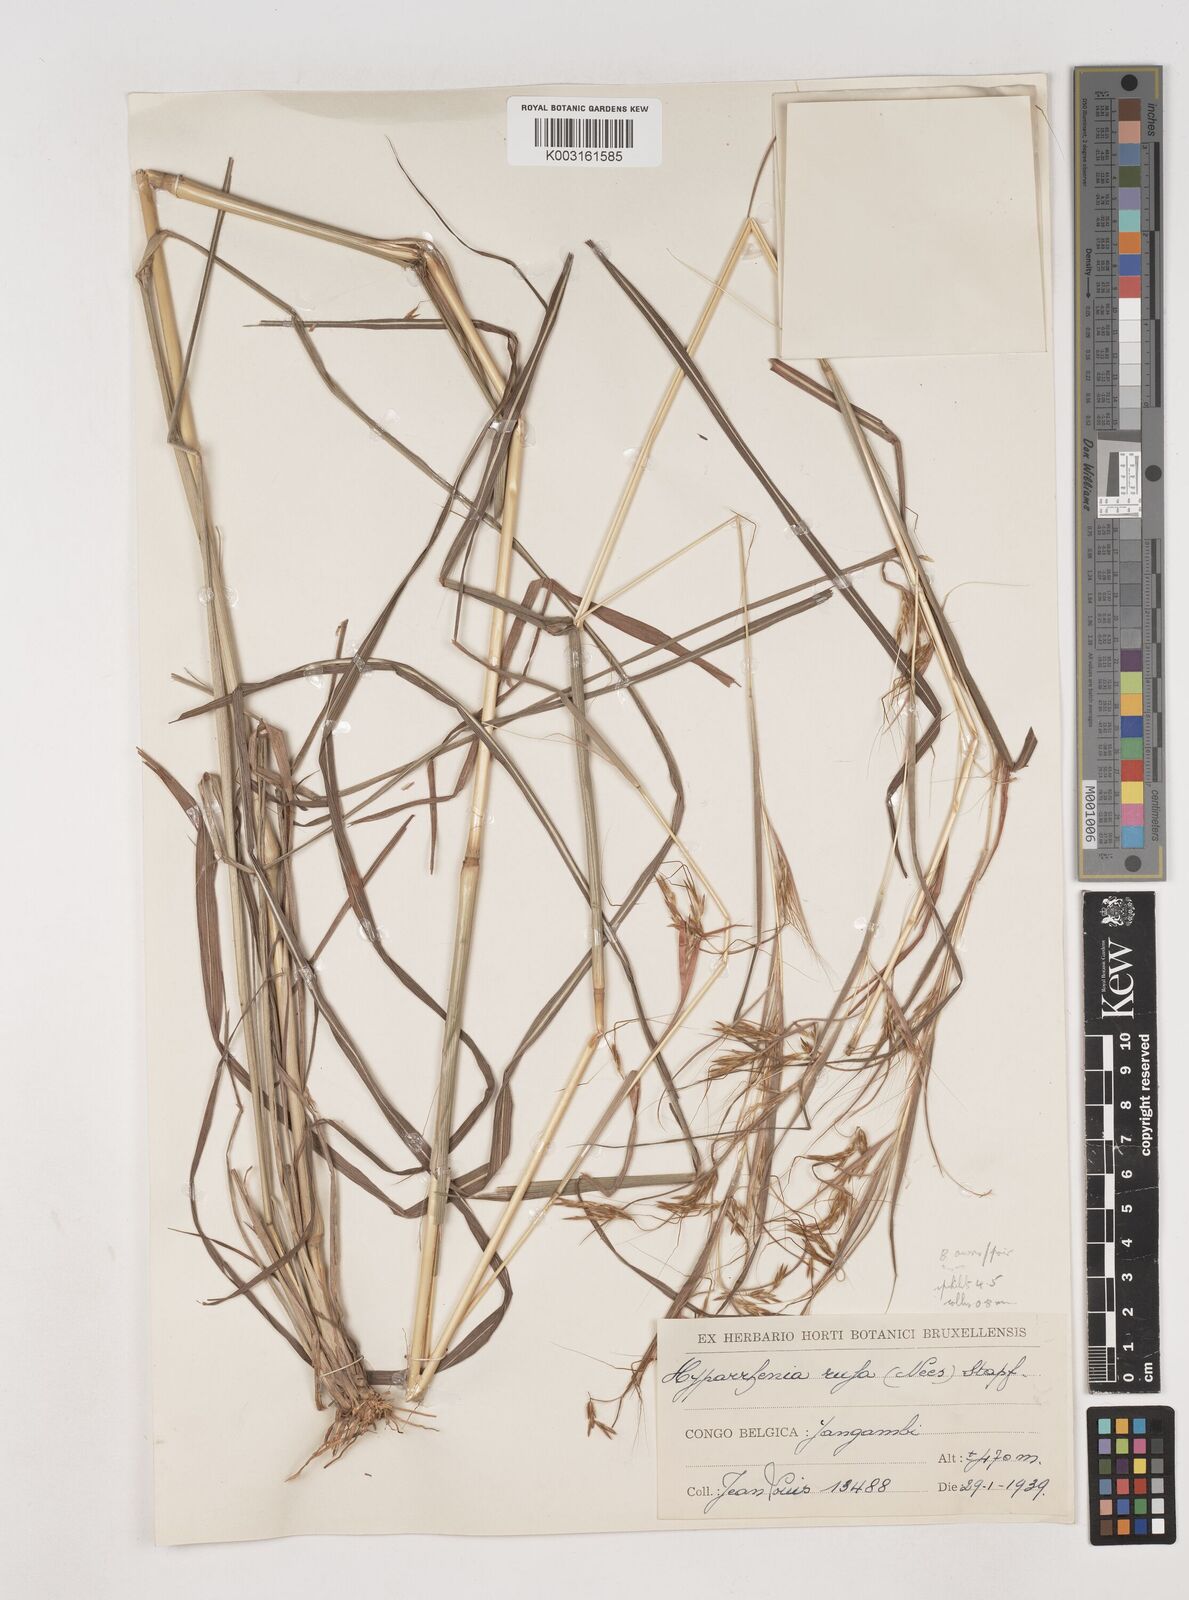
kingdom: Plantae
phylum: Tracheophyta
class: Liliopsida
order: Poales
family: Poaceae
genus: Hyparrhenia
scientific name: Hyparrhenia rufa
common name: Jaraguagrass
